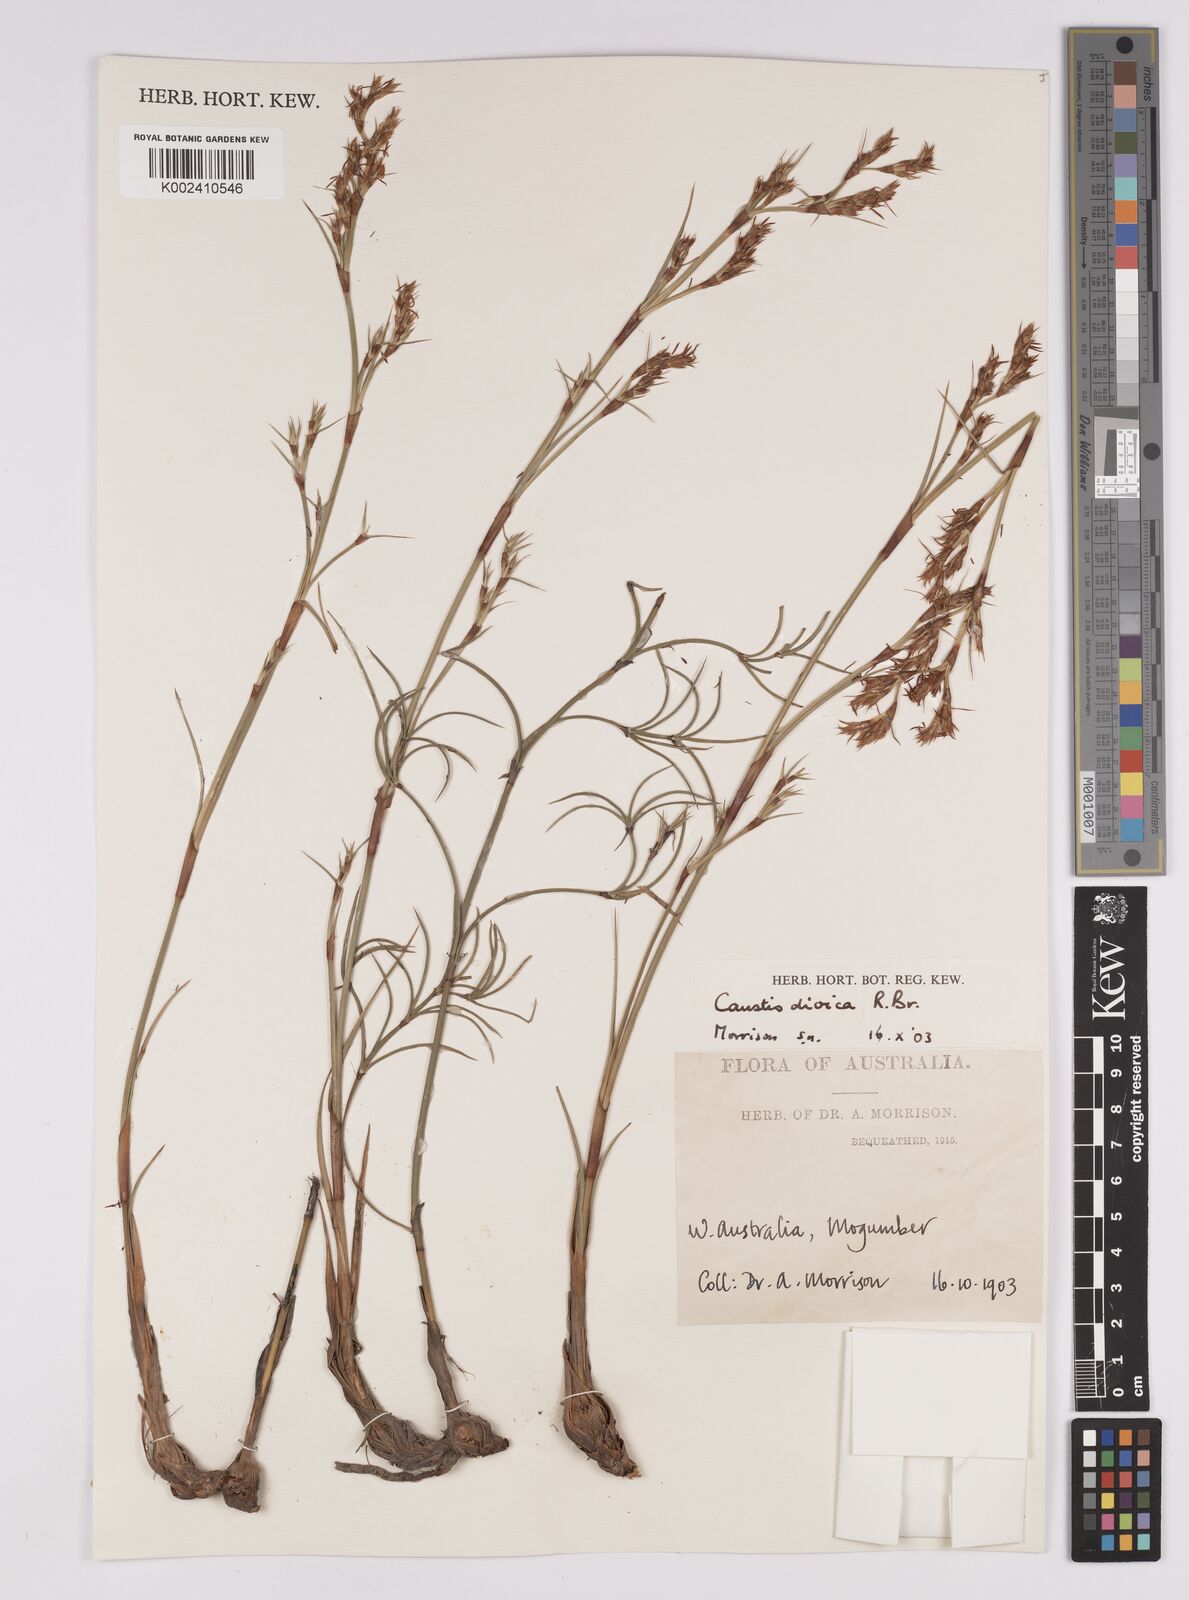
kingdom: Plantae
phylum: Tracheophyta
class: Liliopsida
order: Poales
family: Cyperaceae
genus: Caustis
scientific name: Caustis dioica
